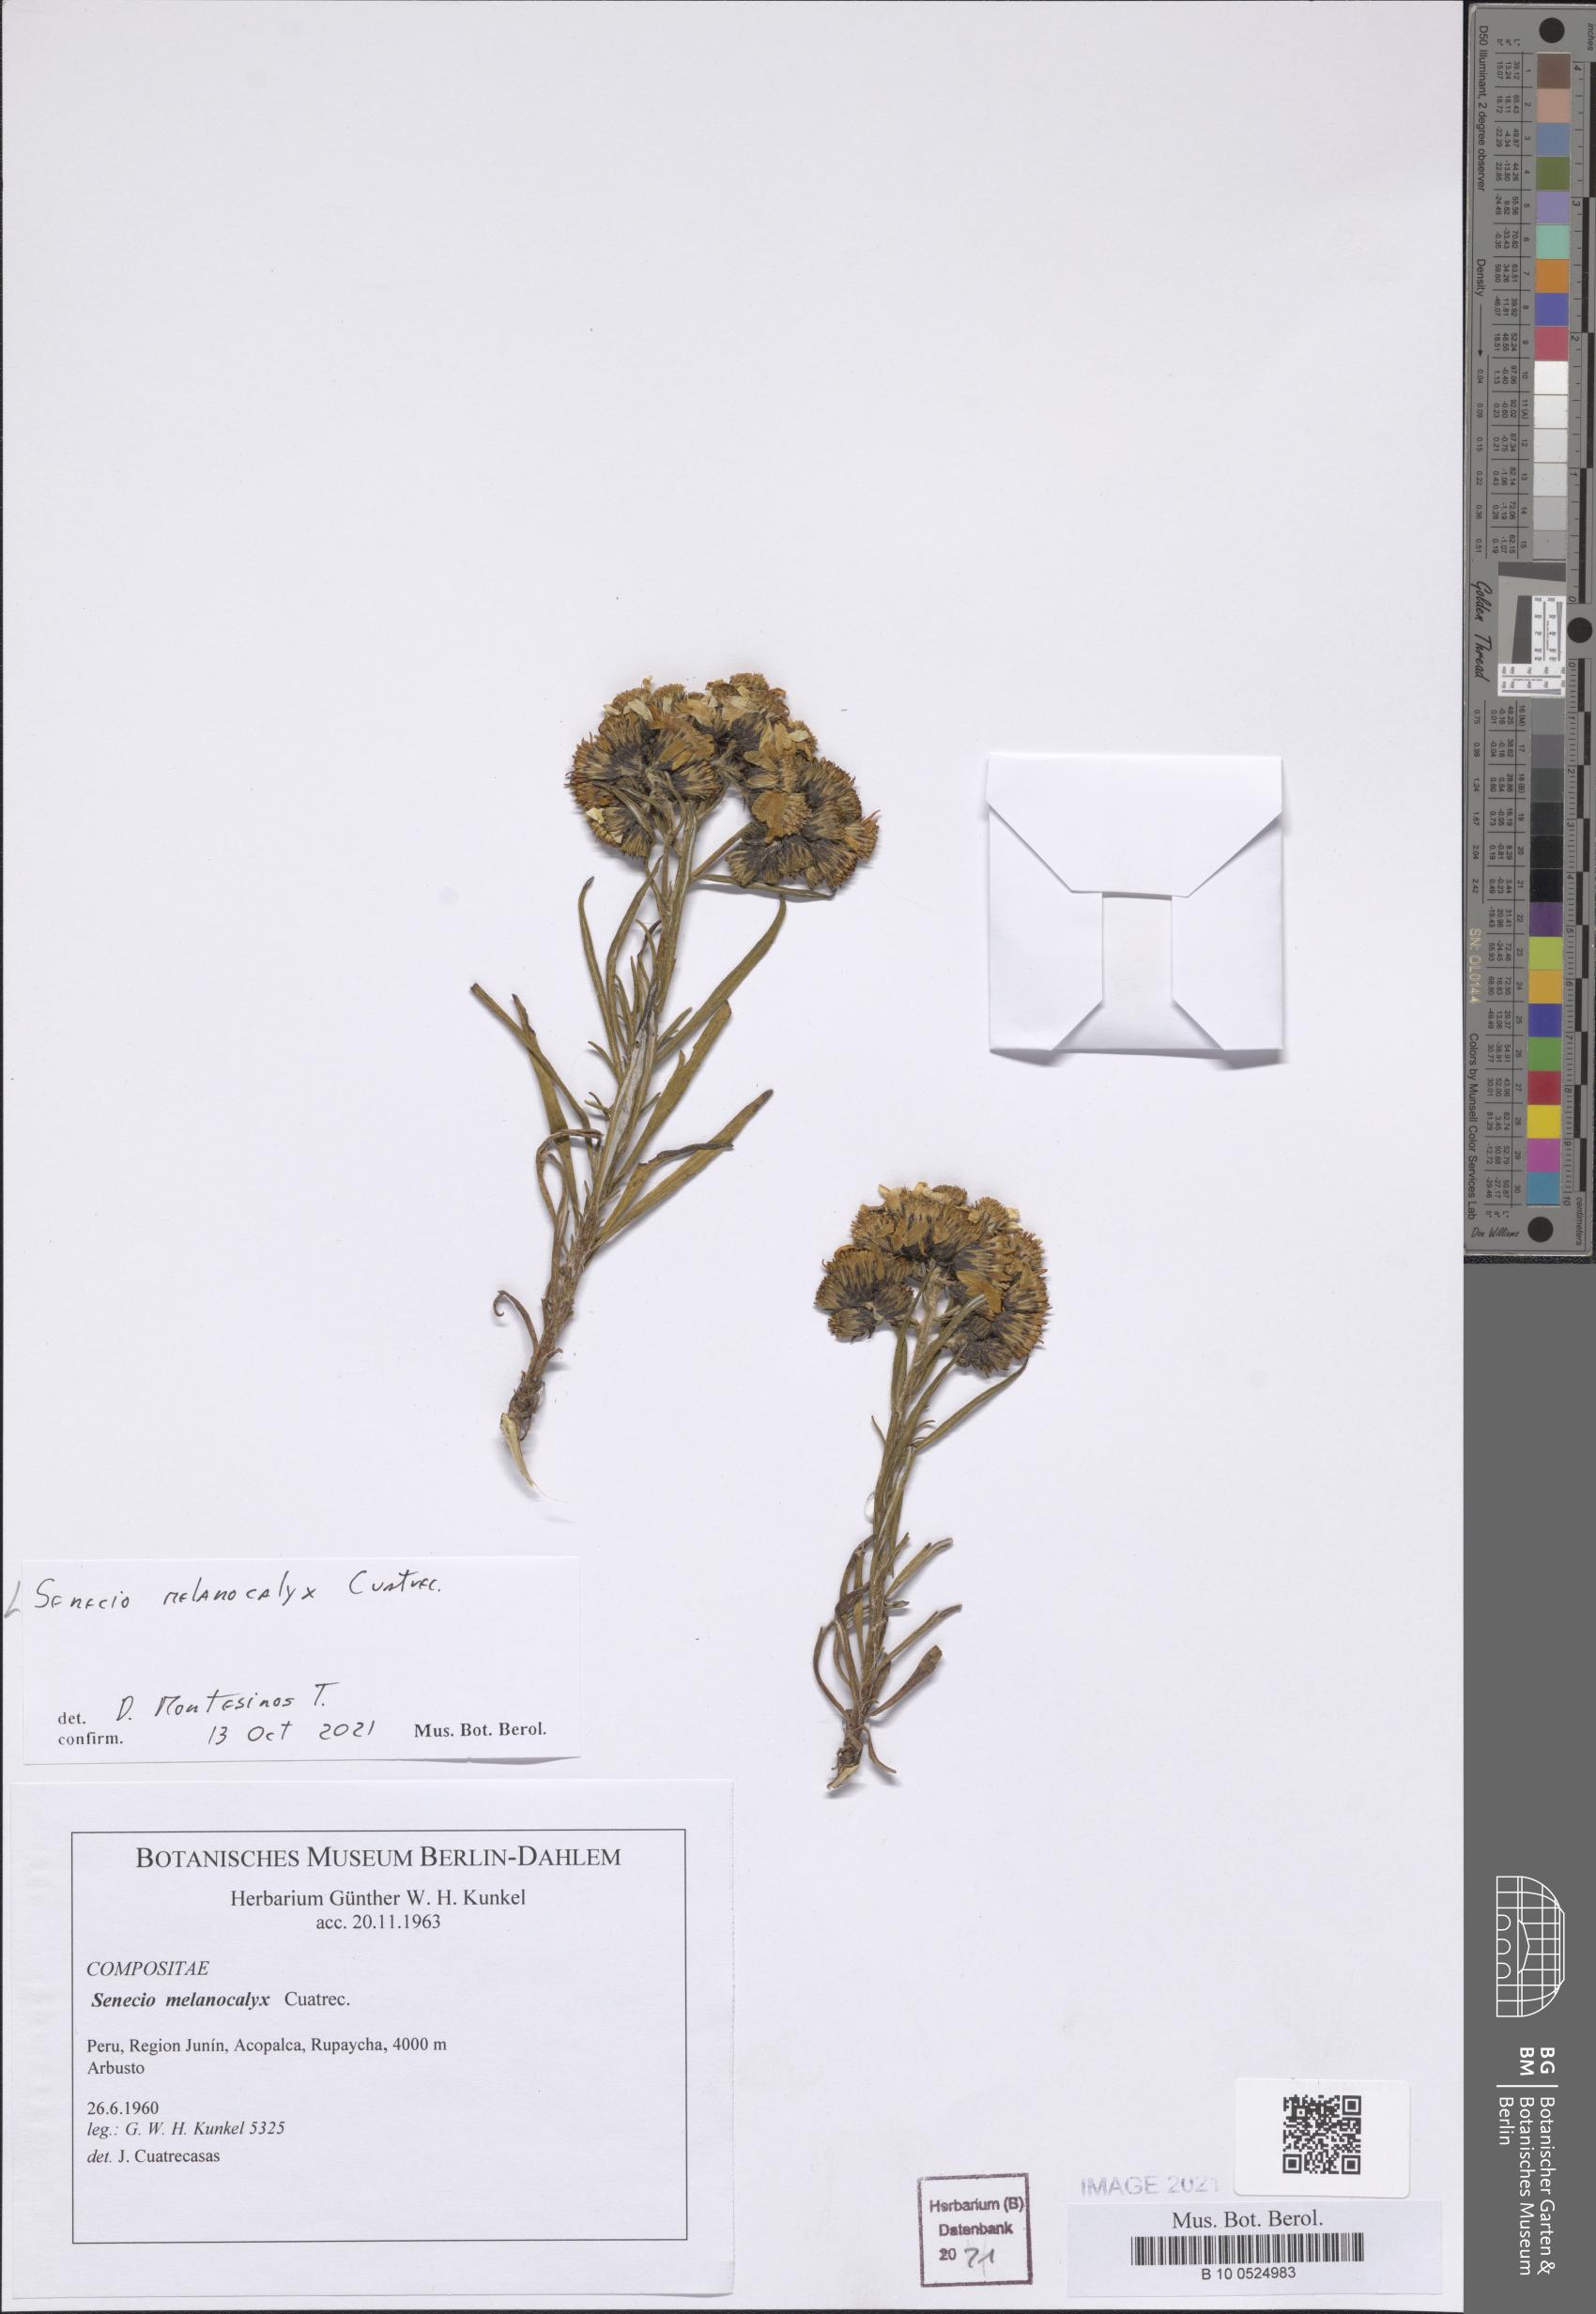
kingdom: Plantae
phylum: Tracheophyta
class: Magnoliopsida
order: Asterales
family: Asteraceae
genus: Senecio
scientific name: Senecio melanocalyx
